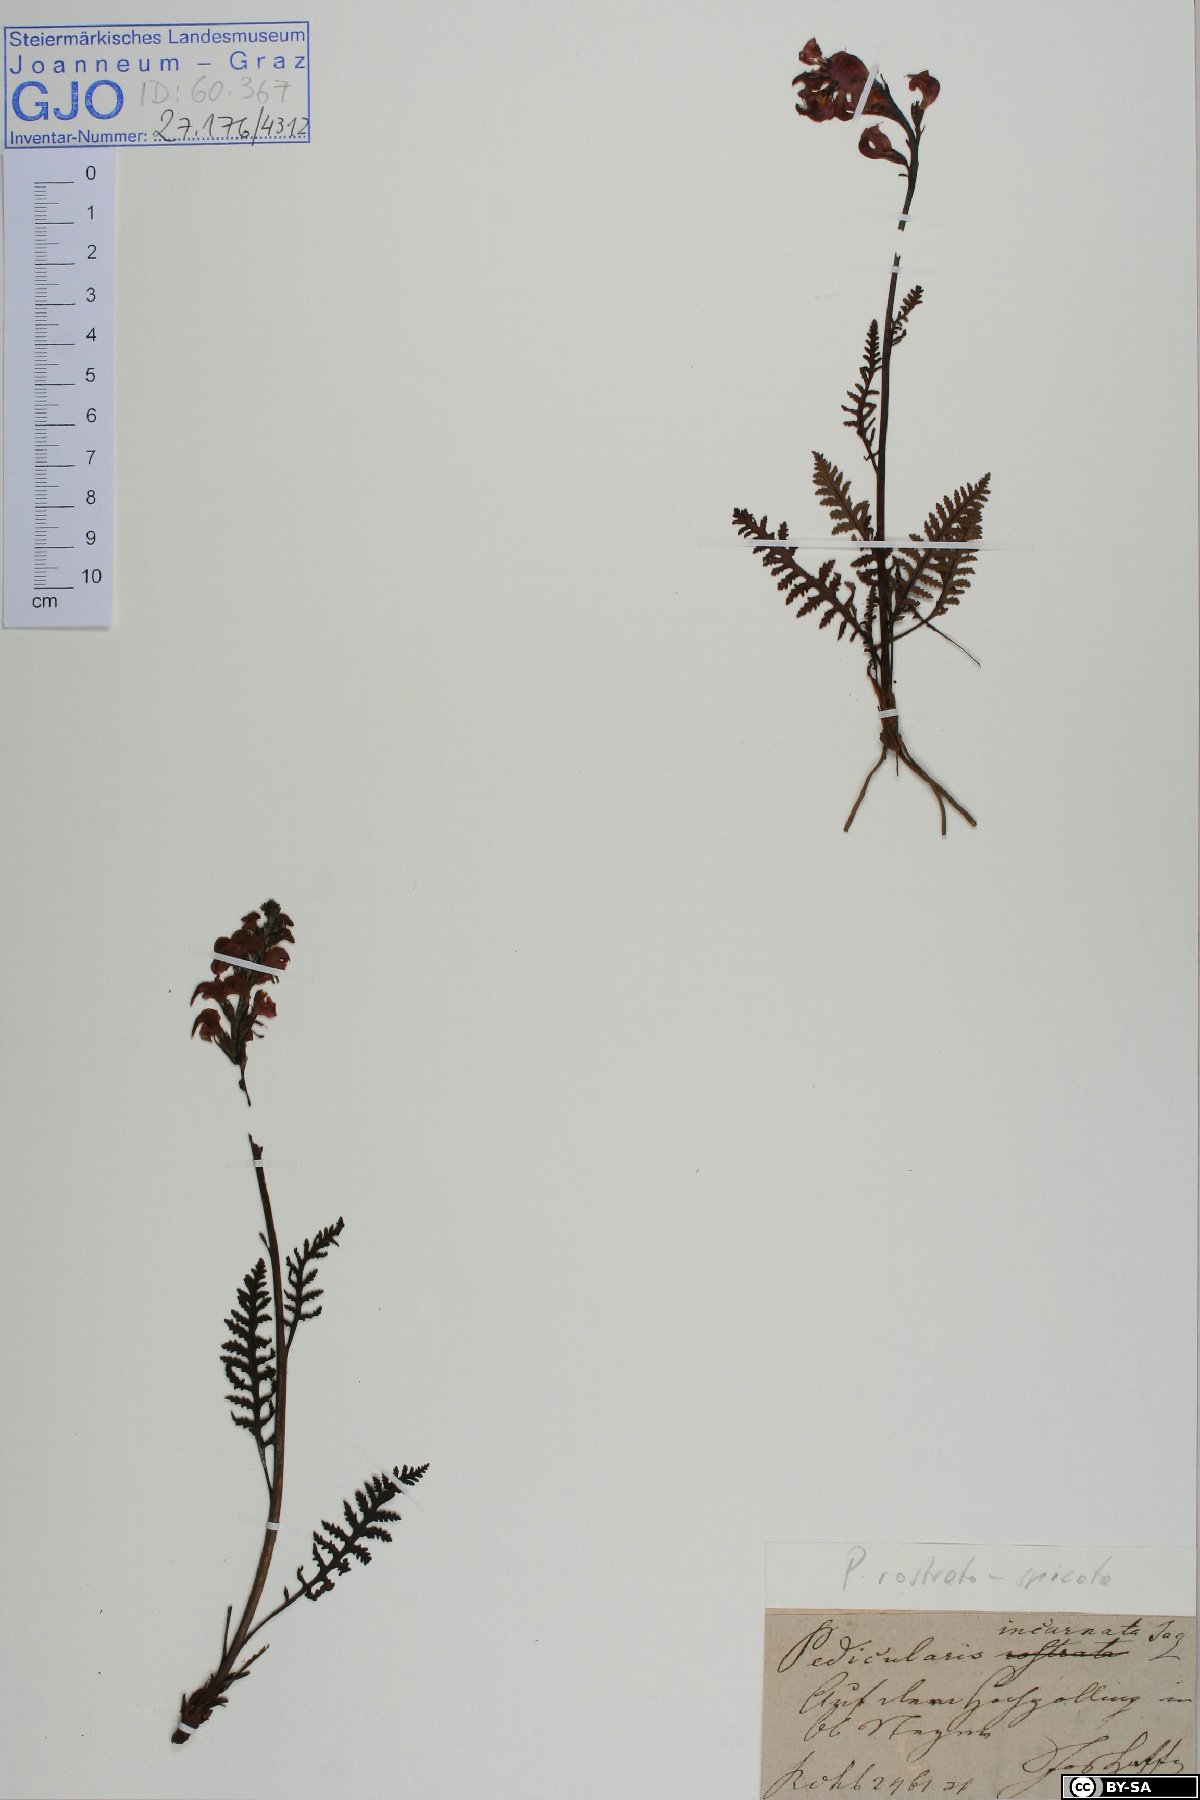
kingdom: Plantae
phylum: Tracheophyta
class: Magnoliopsida
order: Lamiales
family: Orobanchaceae
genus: Pedicularis
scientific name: Pedicularis rostratospicata
